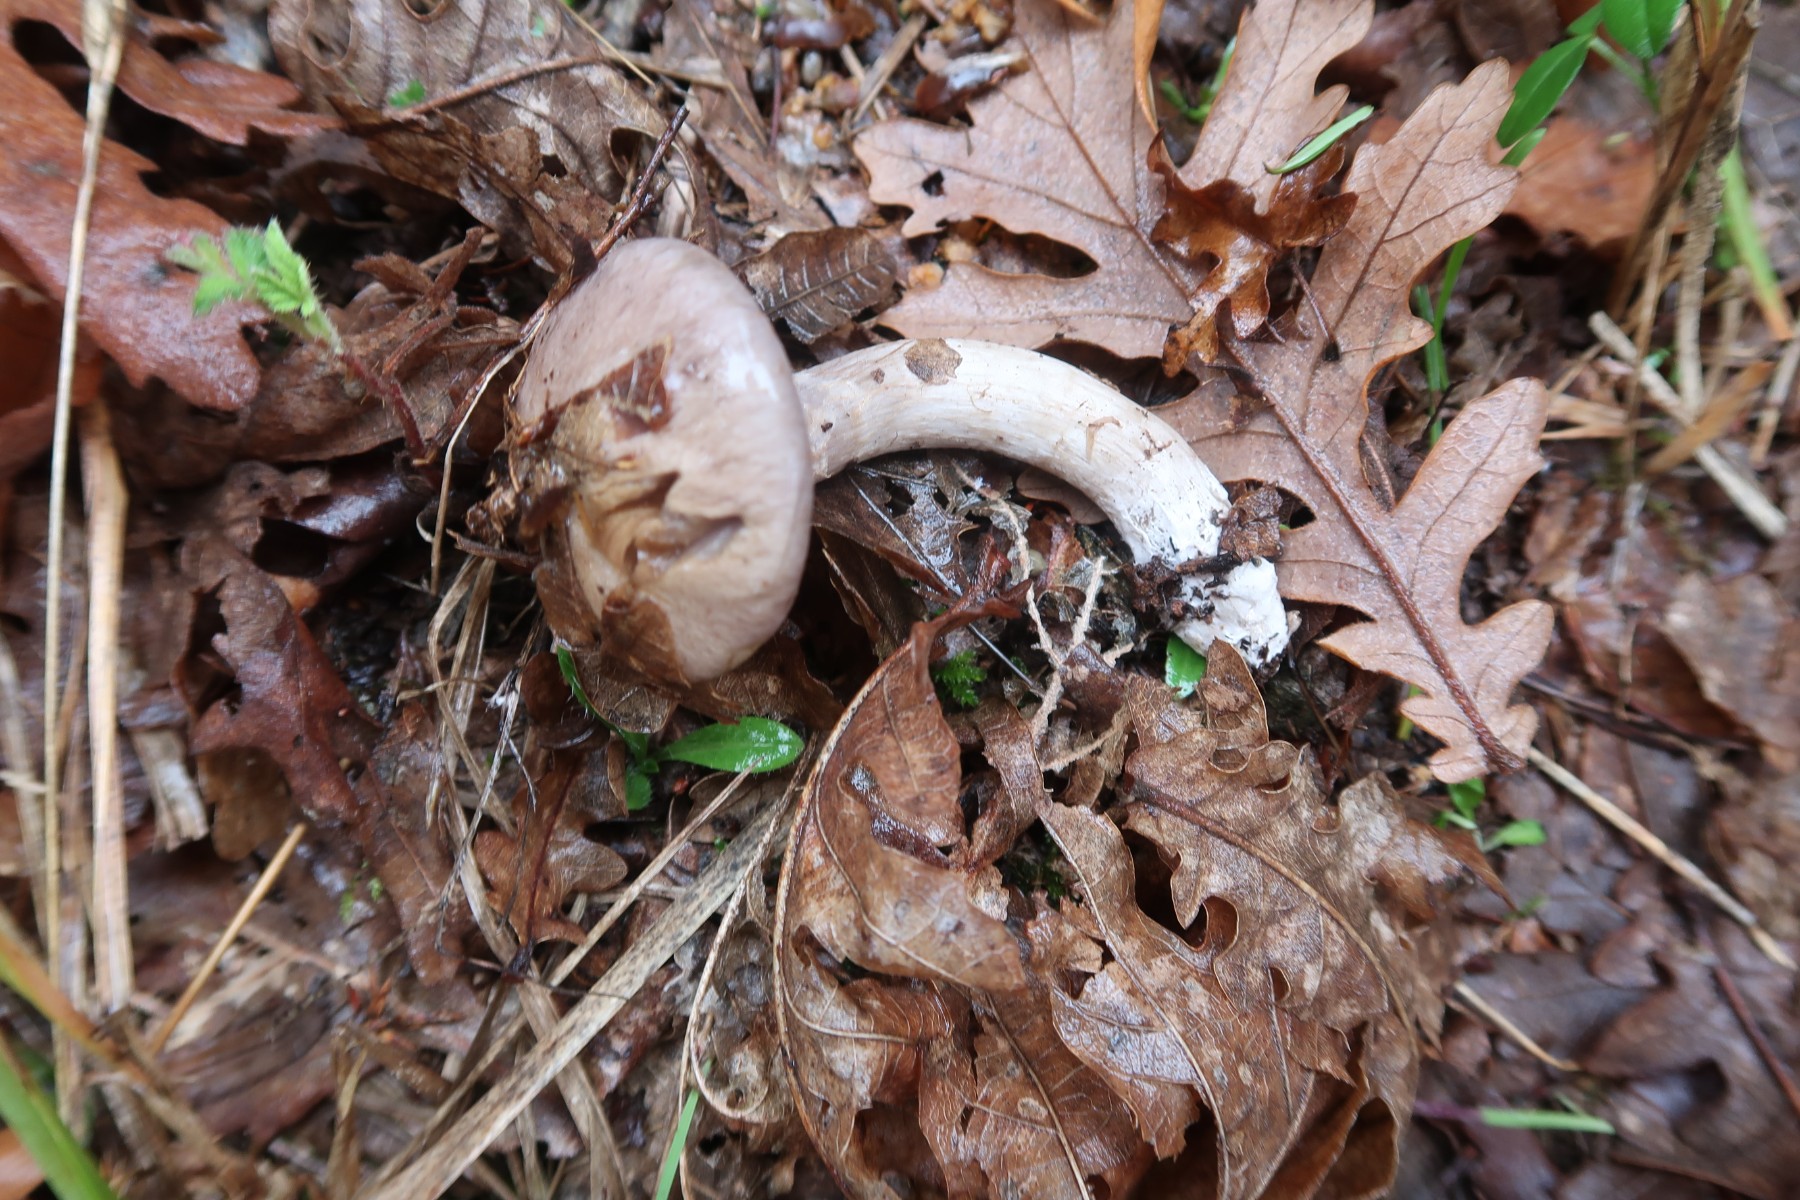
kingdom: Fungi
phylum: Basidiomycota
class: Agaricomycetes
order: Agaricales
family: Cortinariaceae
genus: Cortinarius
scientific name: Cortinarius
